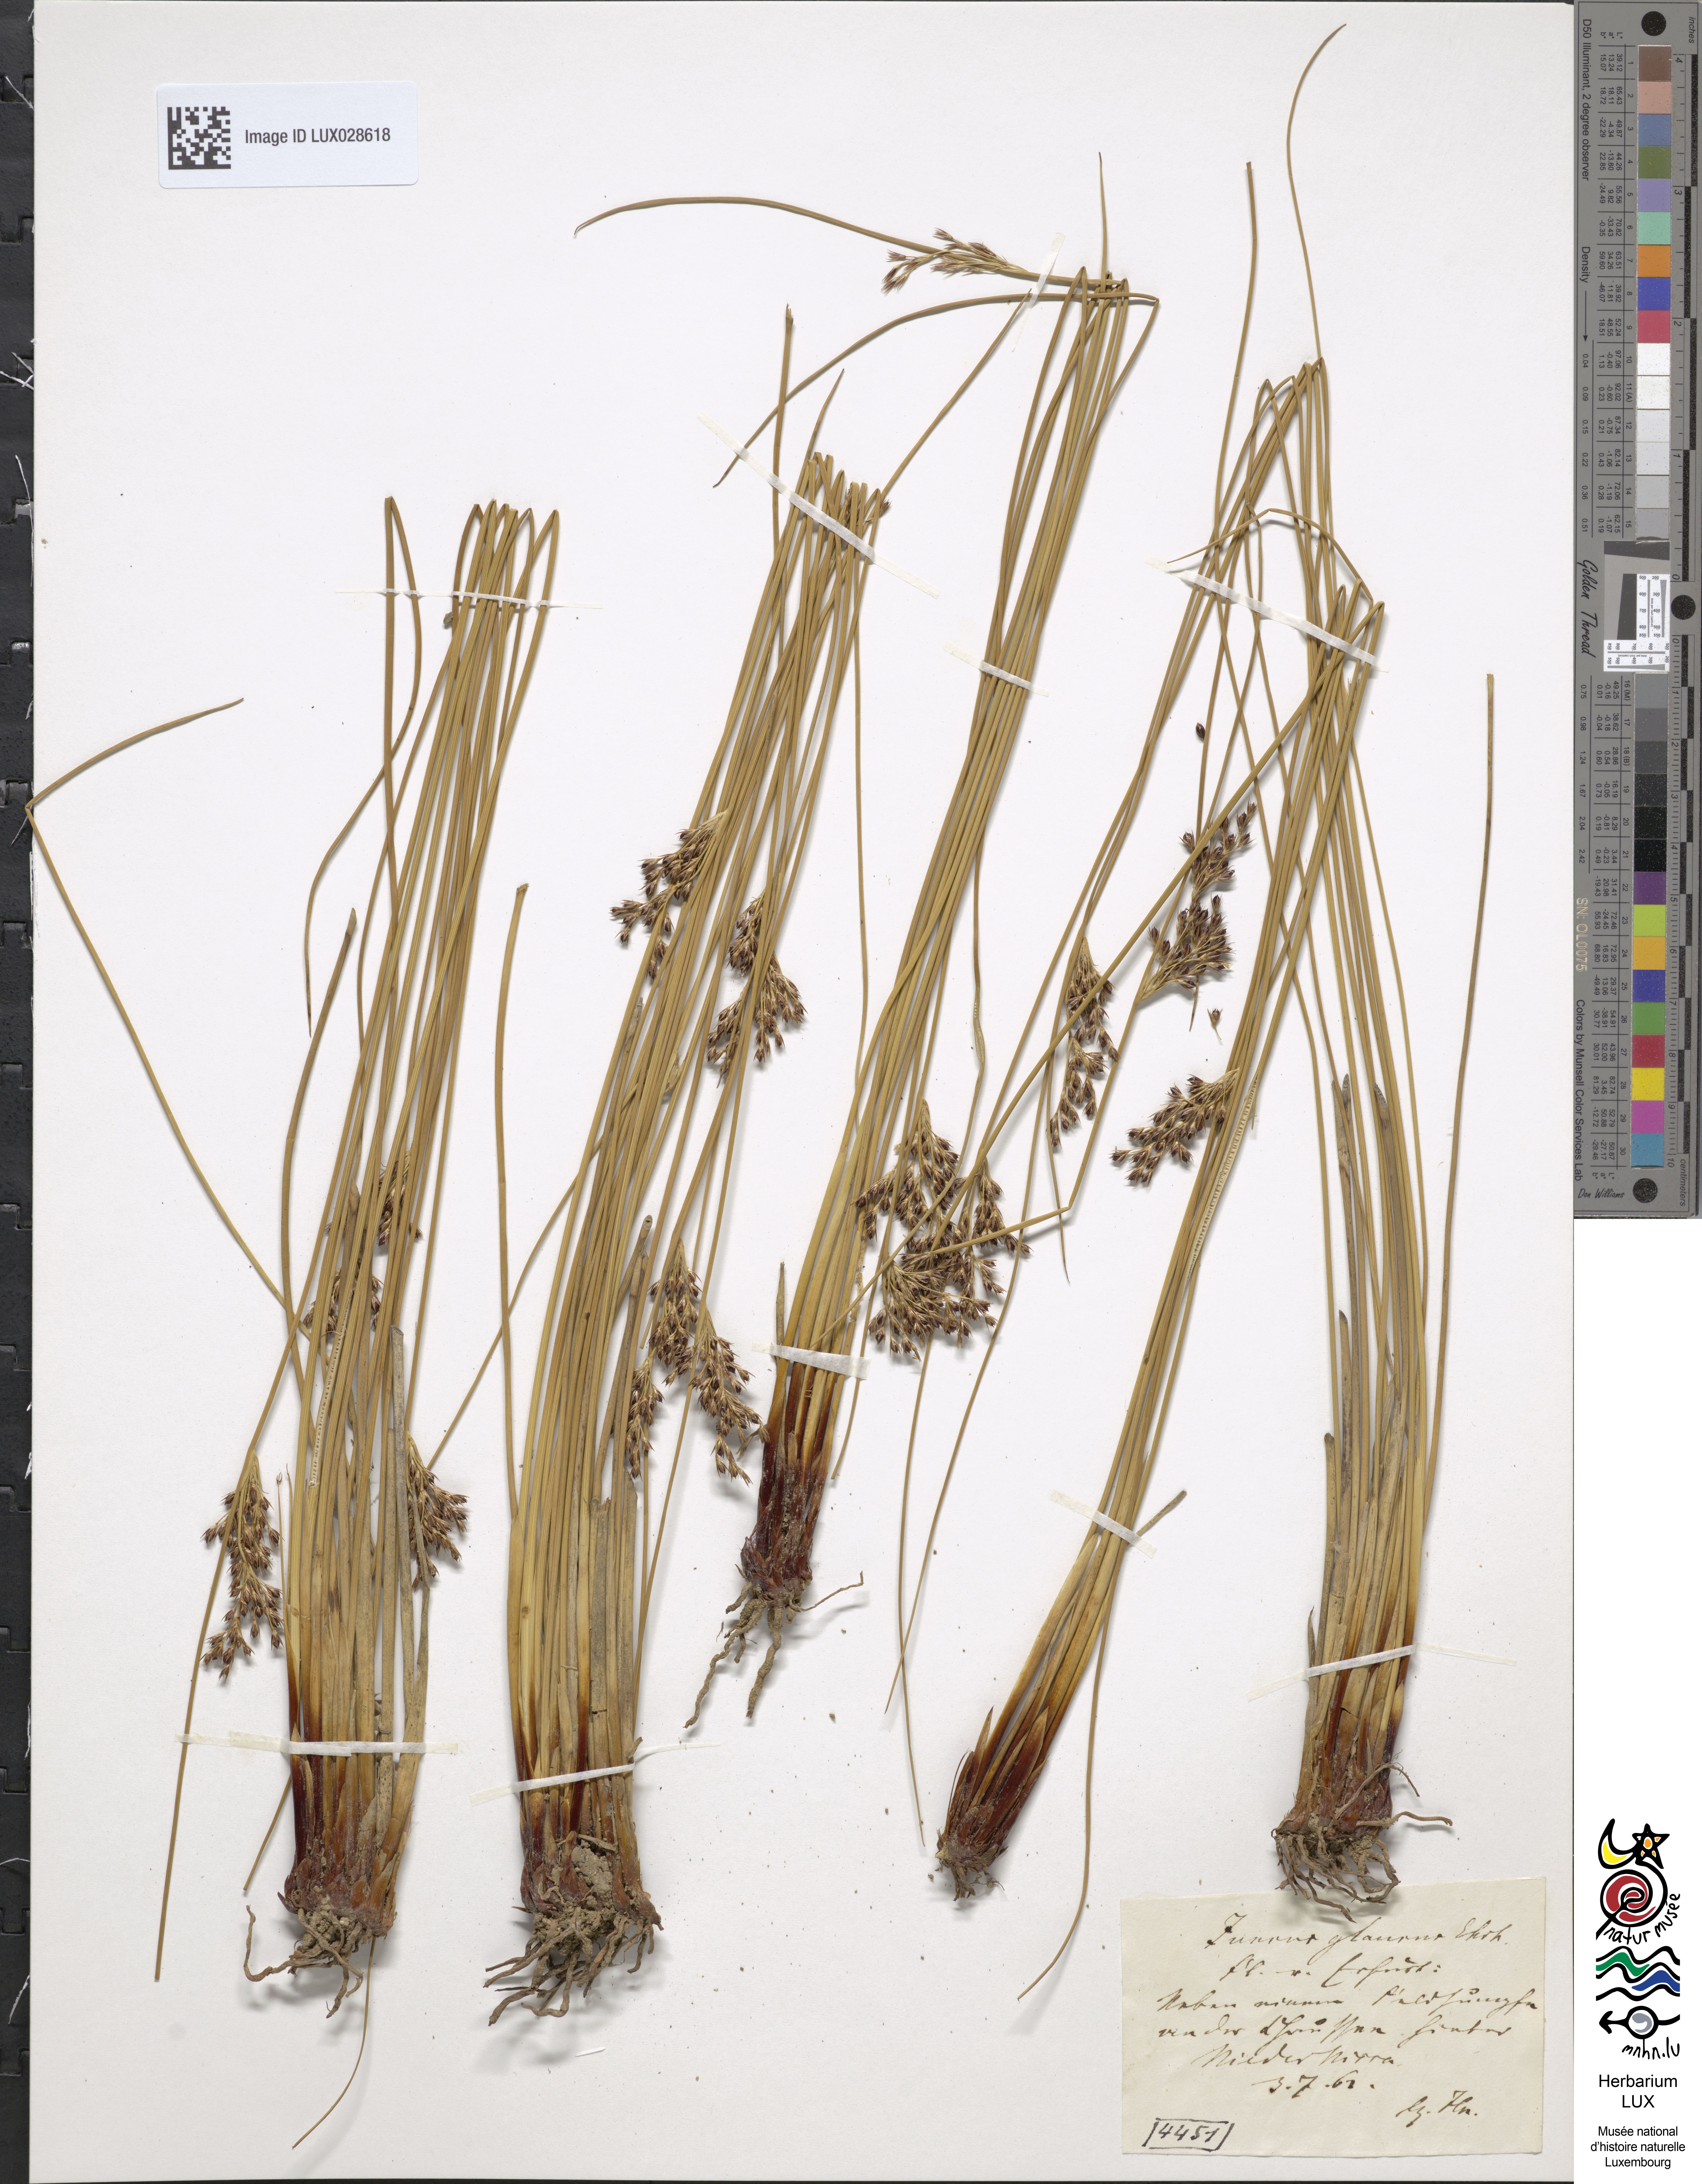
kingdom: Plantae
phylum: Tracheophyta
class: Liliopsida
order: Poales
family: Juncaceae
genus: Juncus
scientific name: Juncus inflexus
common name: Hard rush
